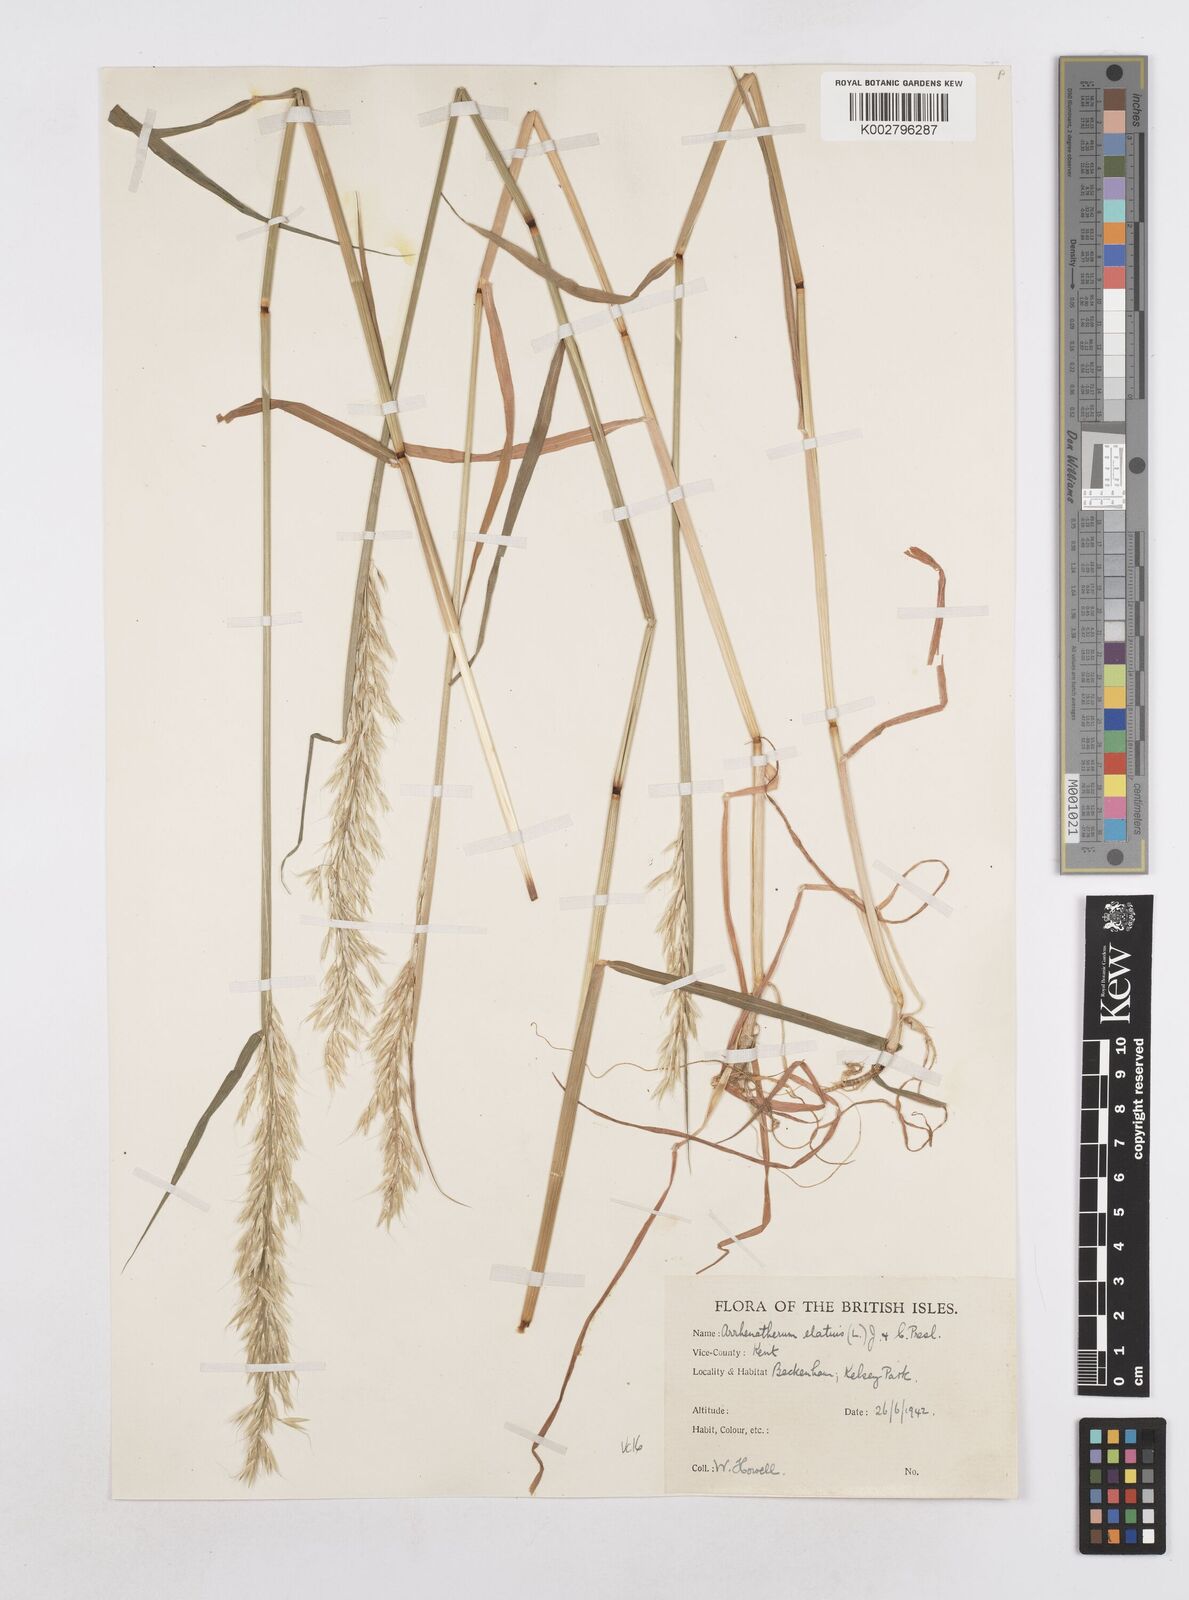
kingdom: Plantae
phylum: Tracheophyta
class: Liliopsida
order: Poales
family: Poaceae
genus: Arrhenatherum
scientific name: Arrhenatherum elatius
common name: Tall oatgrass
